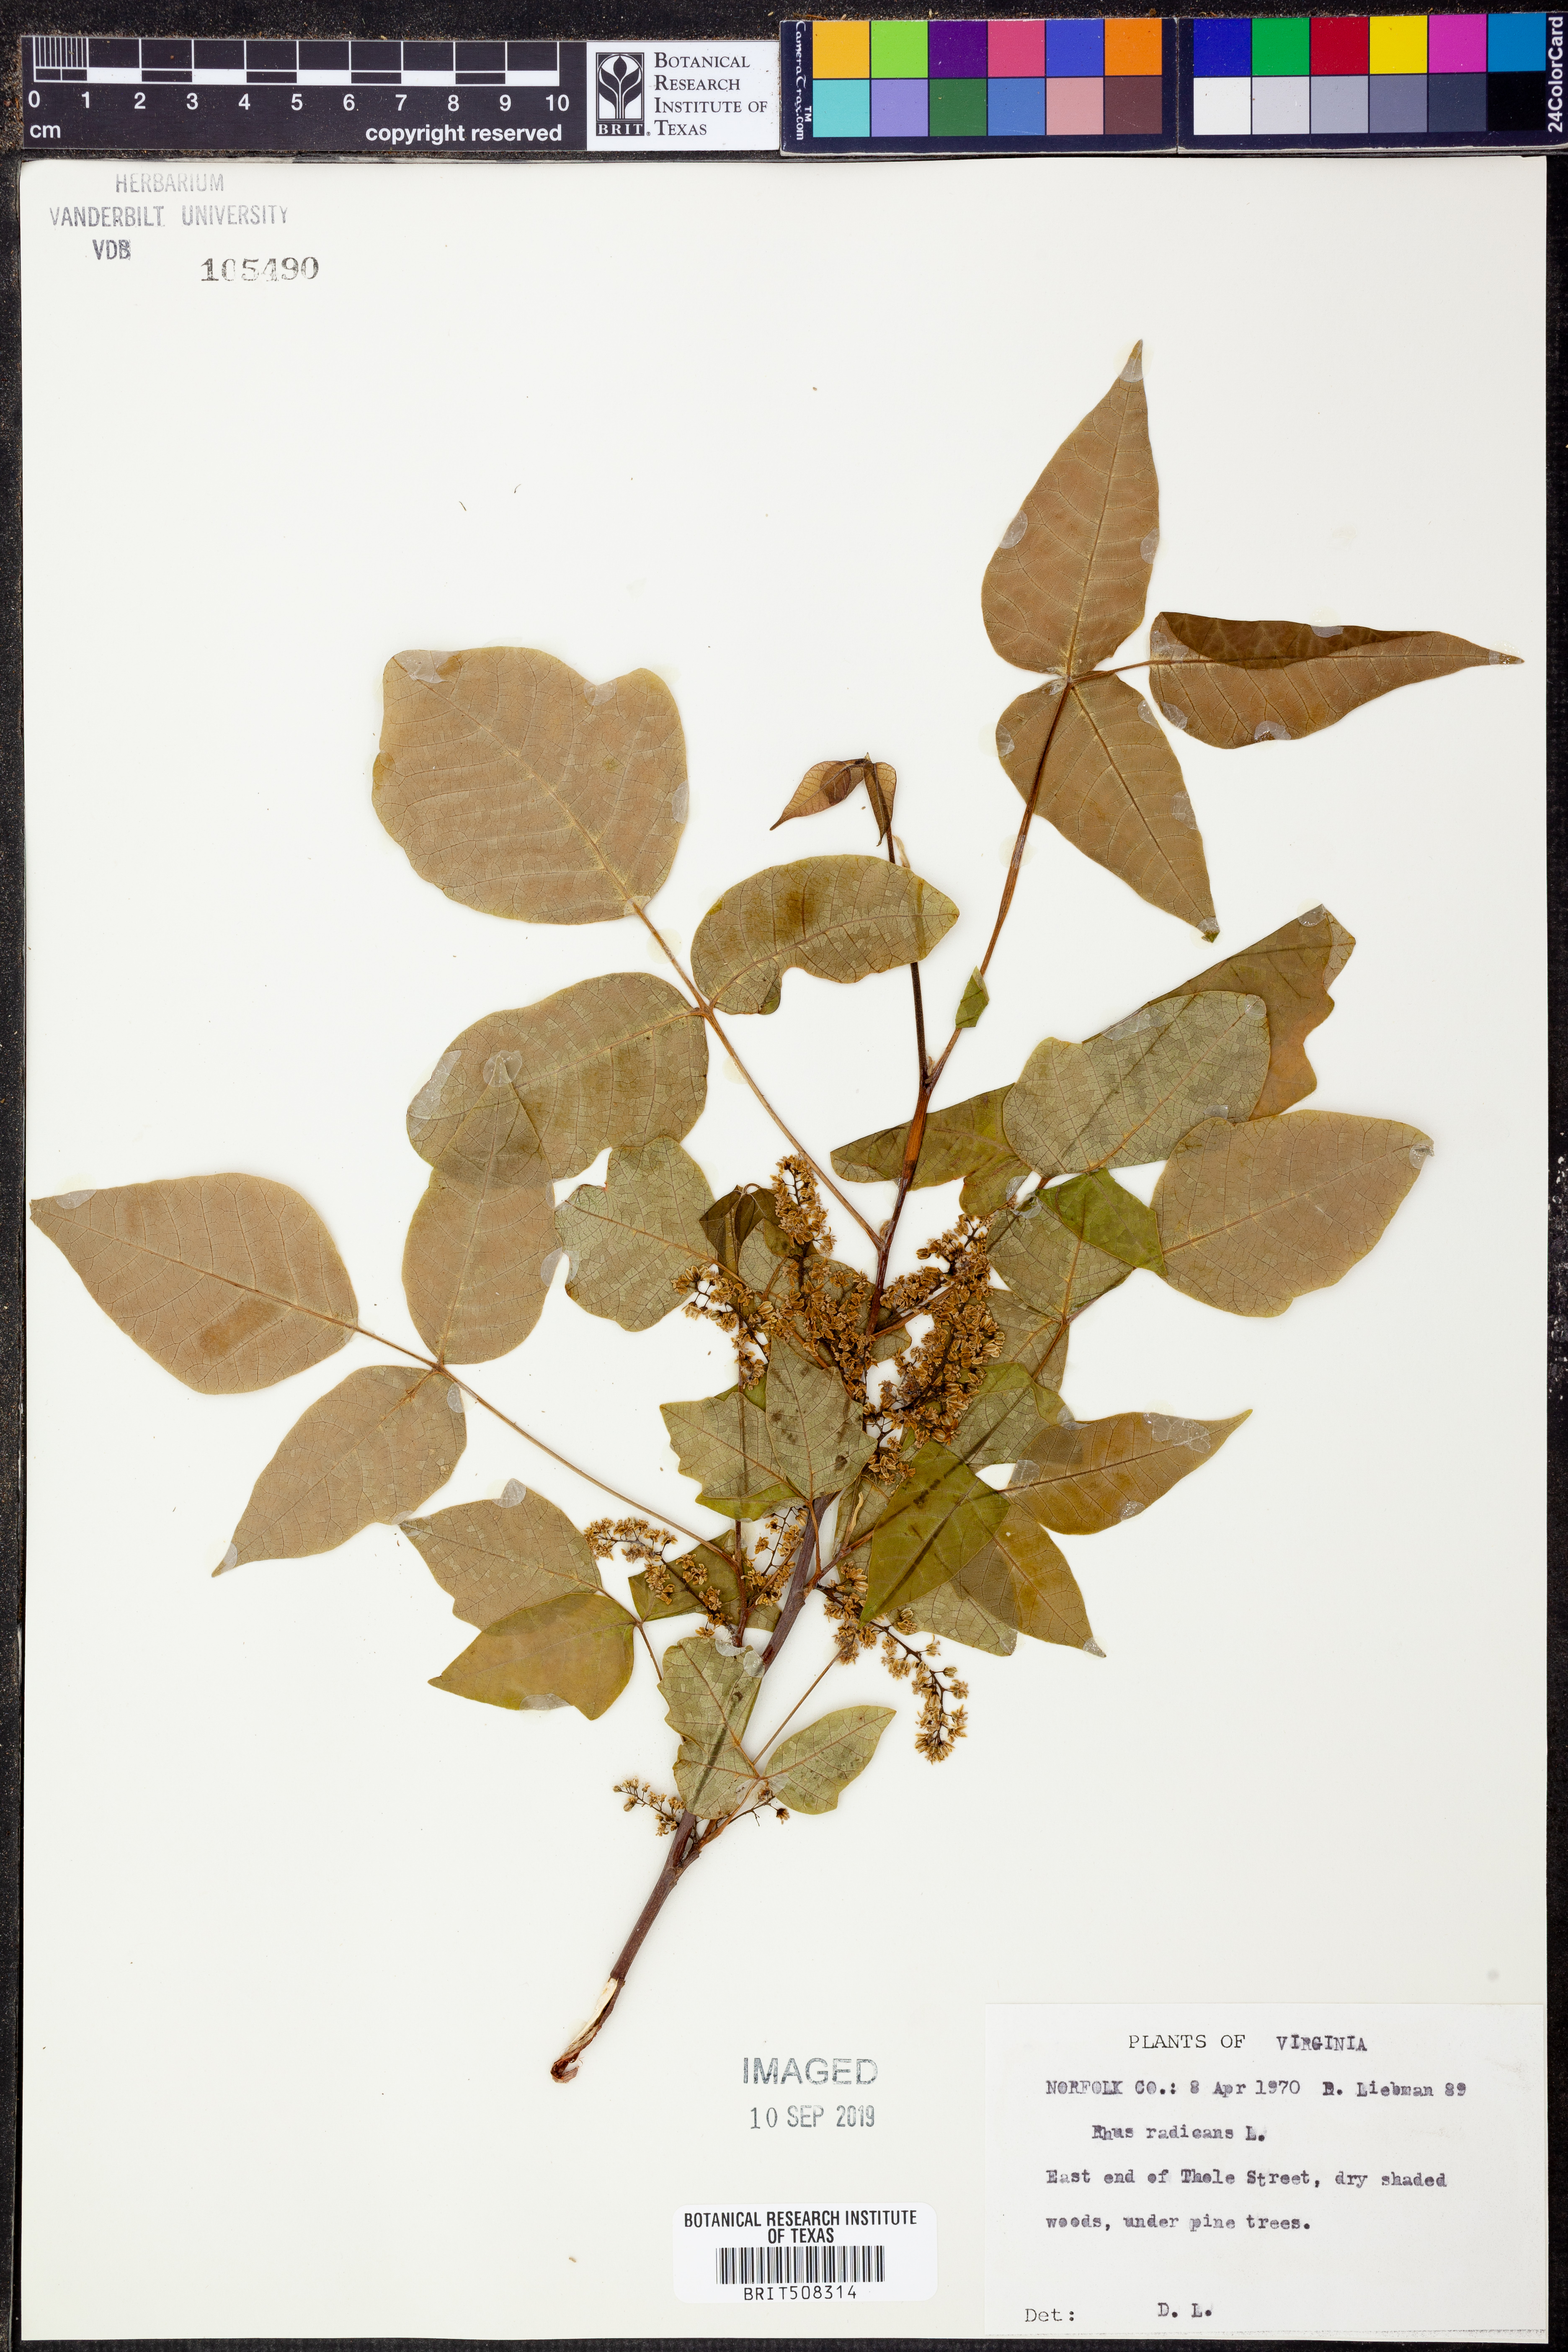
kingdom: Plantae
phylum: Tracheophyta
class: Magnoliopsida
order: Sapindales
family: Anacardiaceae
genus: Toxicodendron
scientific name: Toxicodendron radicans
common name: Poison ivy
